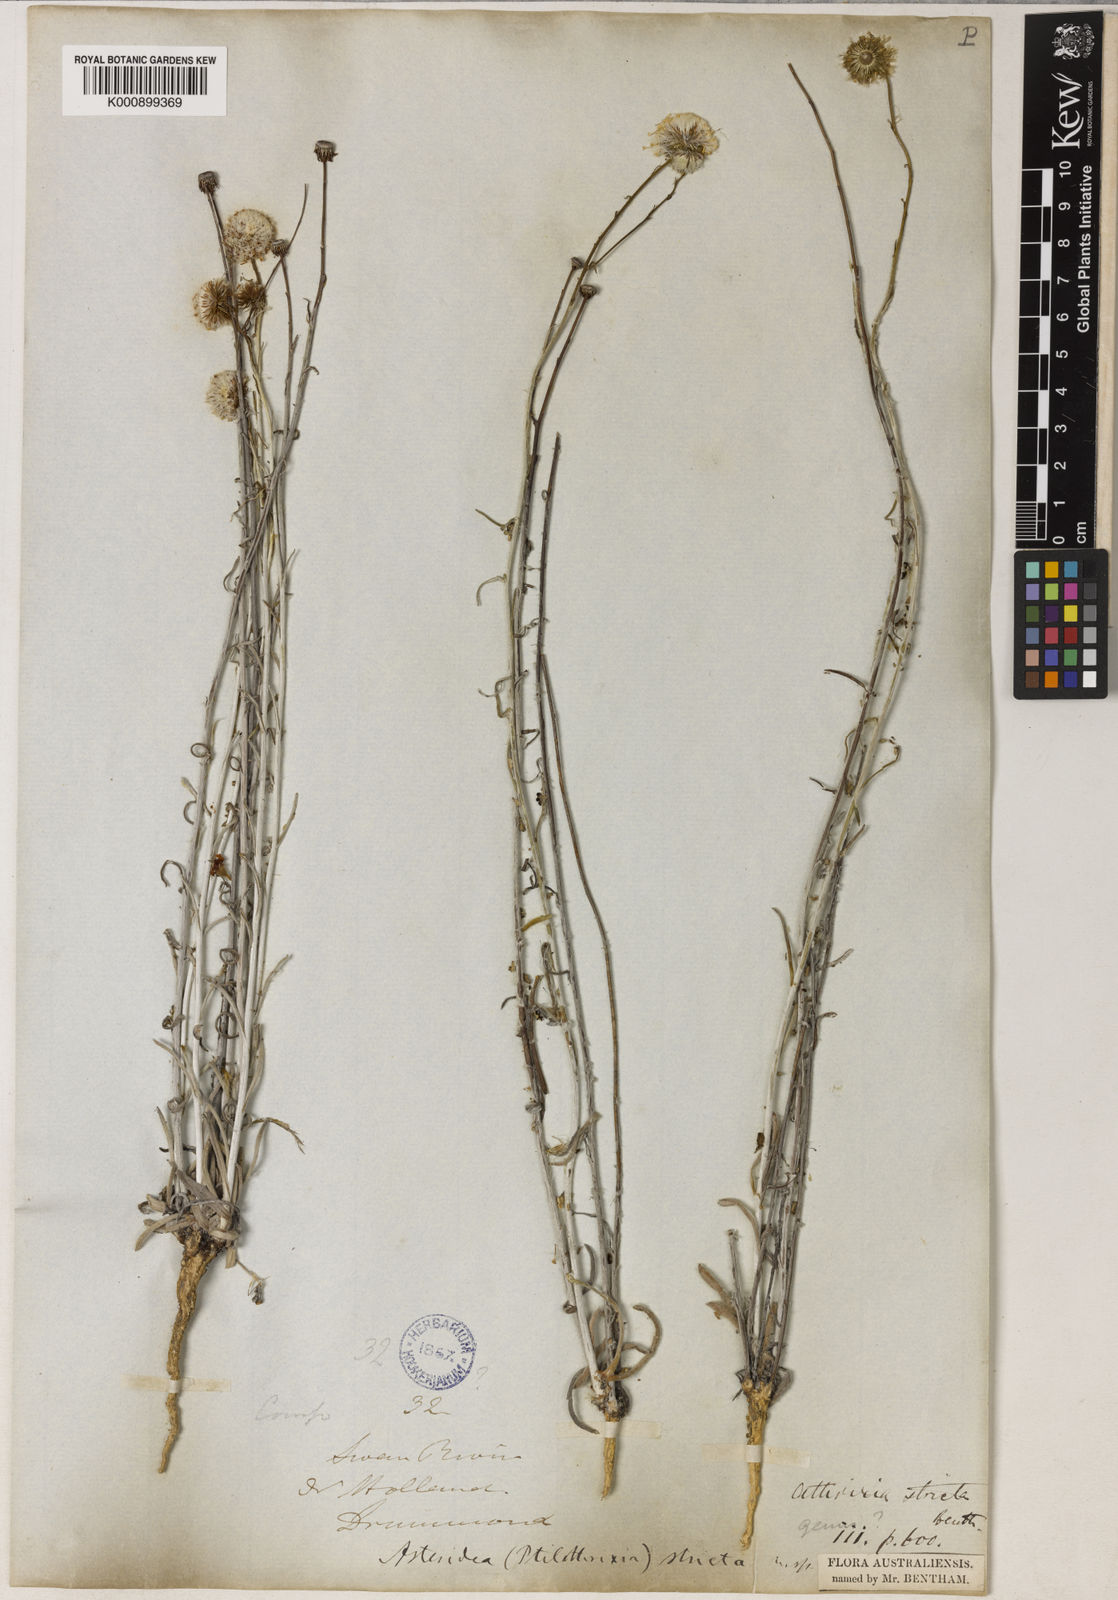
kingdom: Plantae
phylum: Tracheophyta
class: Magnoliopsida
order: Asterales
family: Asteraceae
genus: Asteridea
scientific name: Asteridea nivea
